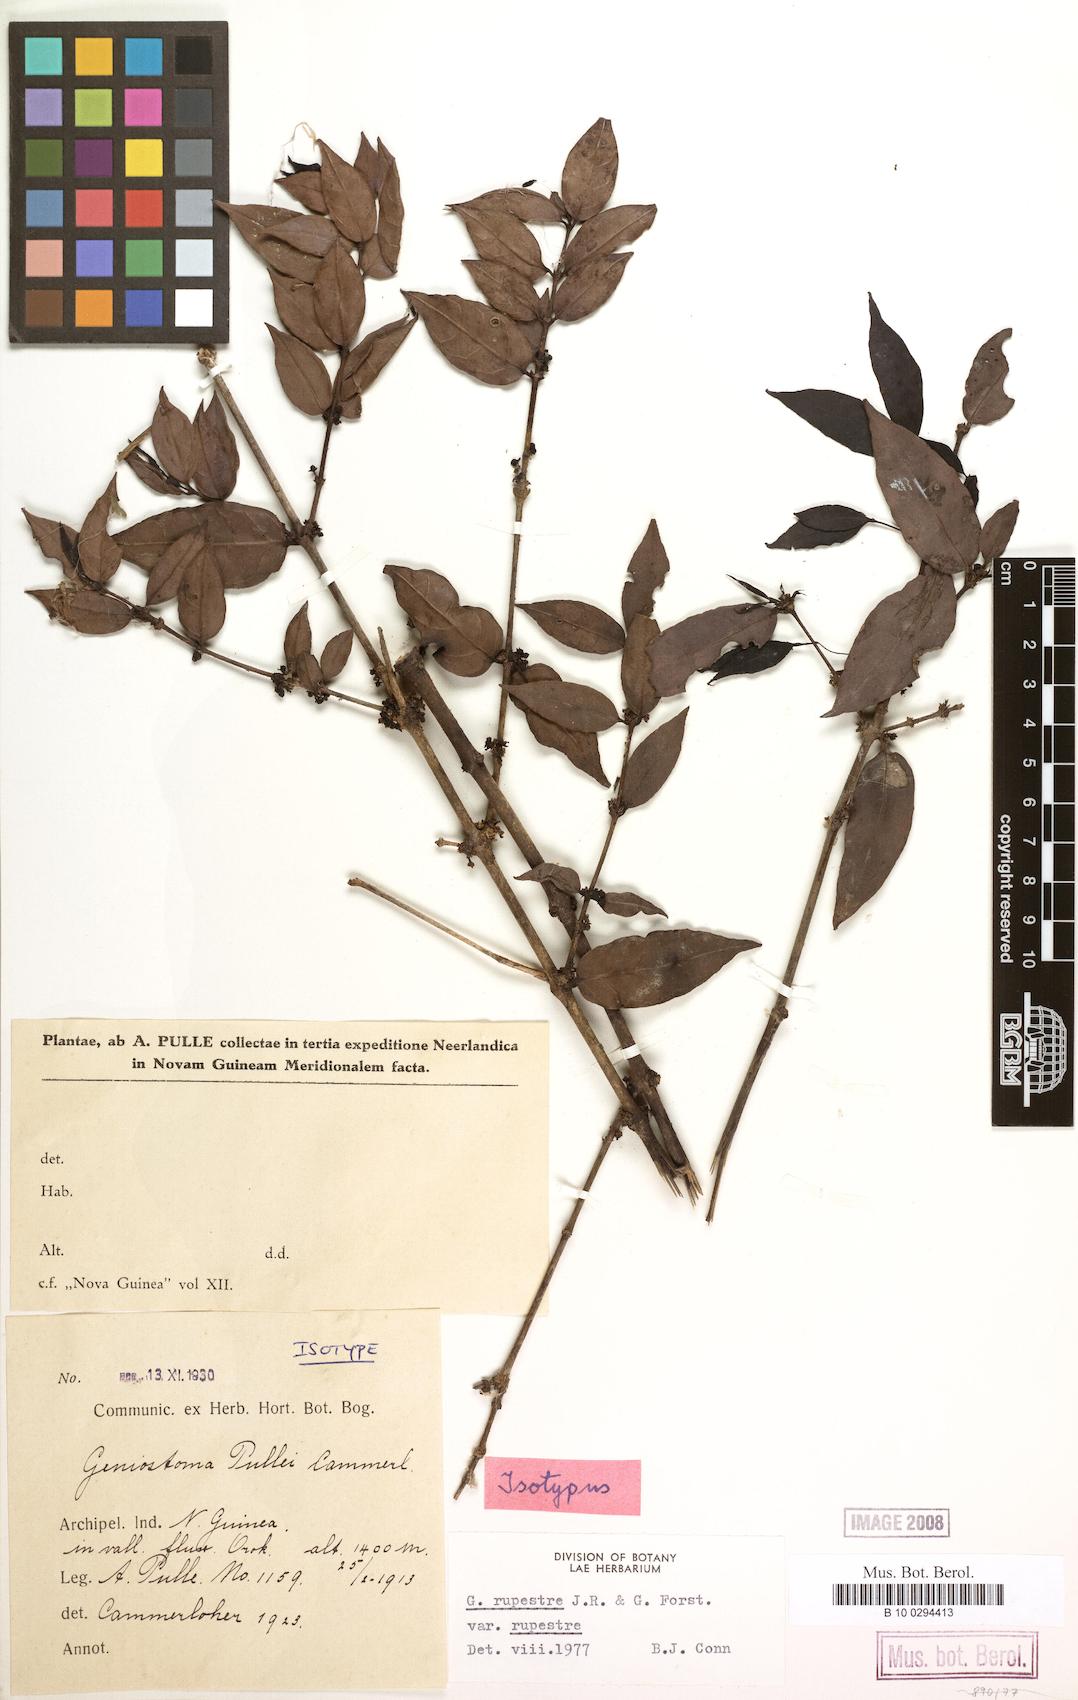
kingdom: Plantae
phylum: Tracheophyta
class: Magnoliopsida
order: Gentianales
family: Loganiaceae
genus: Geniostoma
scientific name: Geniostoma rupestre
